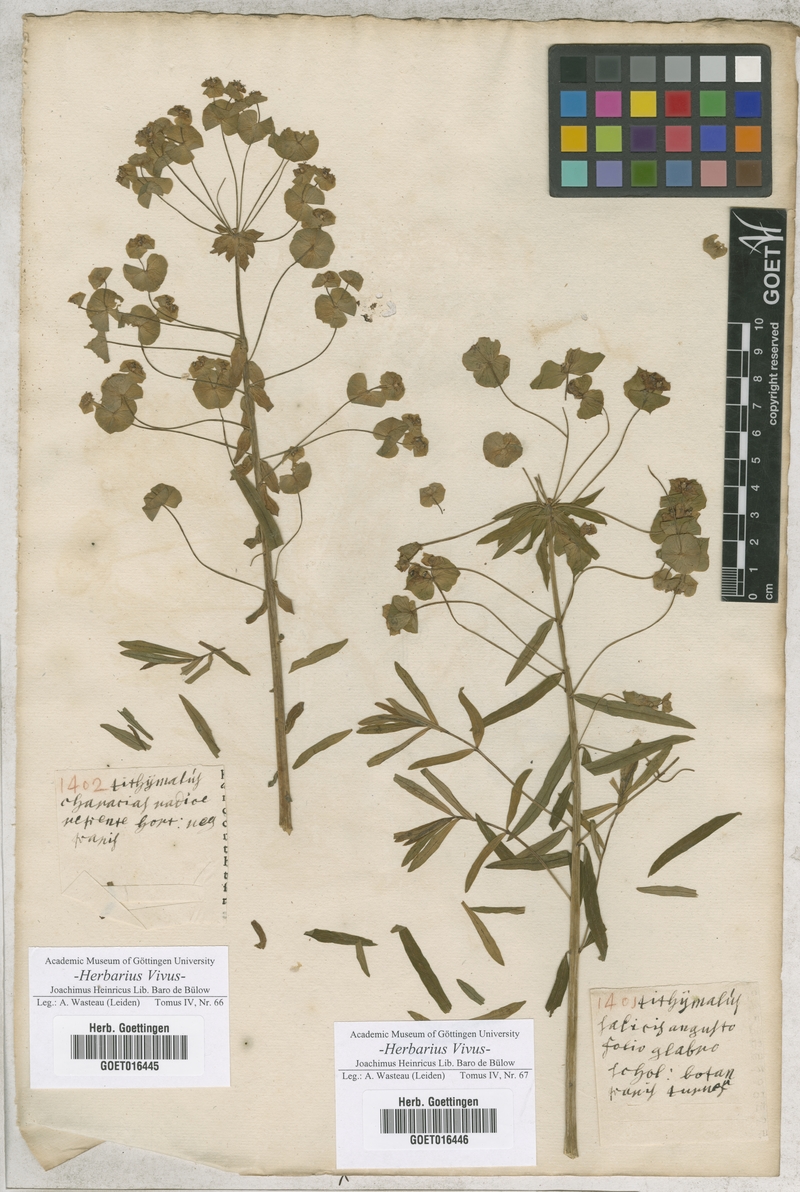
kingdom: Plantae
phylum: Tracheophyta
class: Magnoliopsida
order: Malpighiales
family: Euphorbiaceae
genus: Tithymalus
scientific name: Tithymalus
